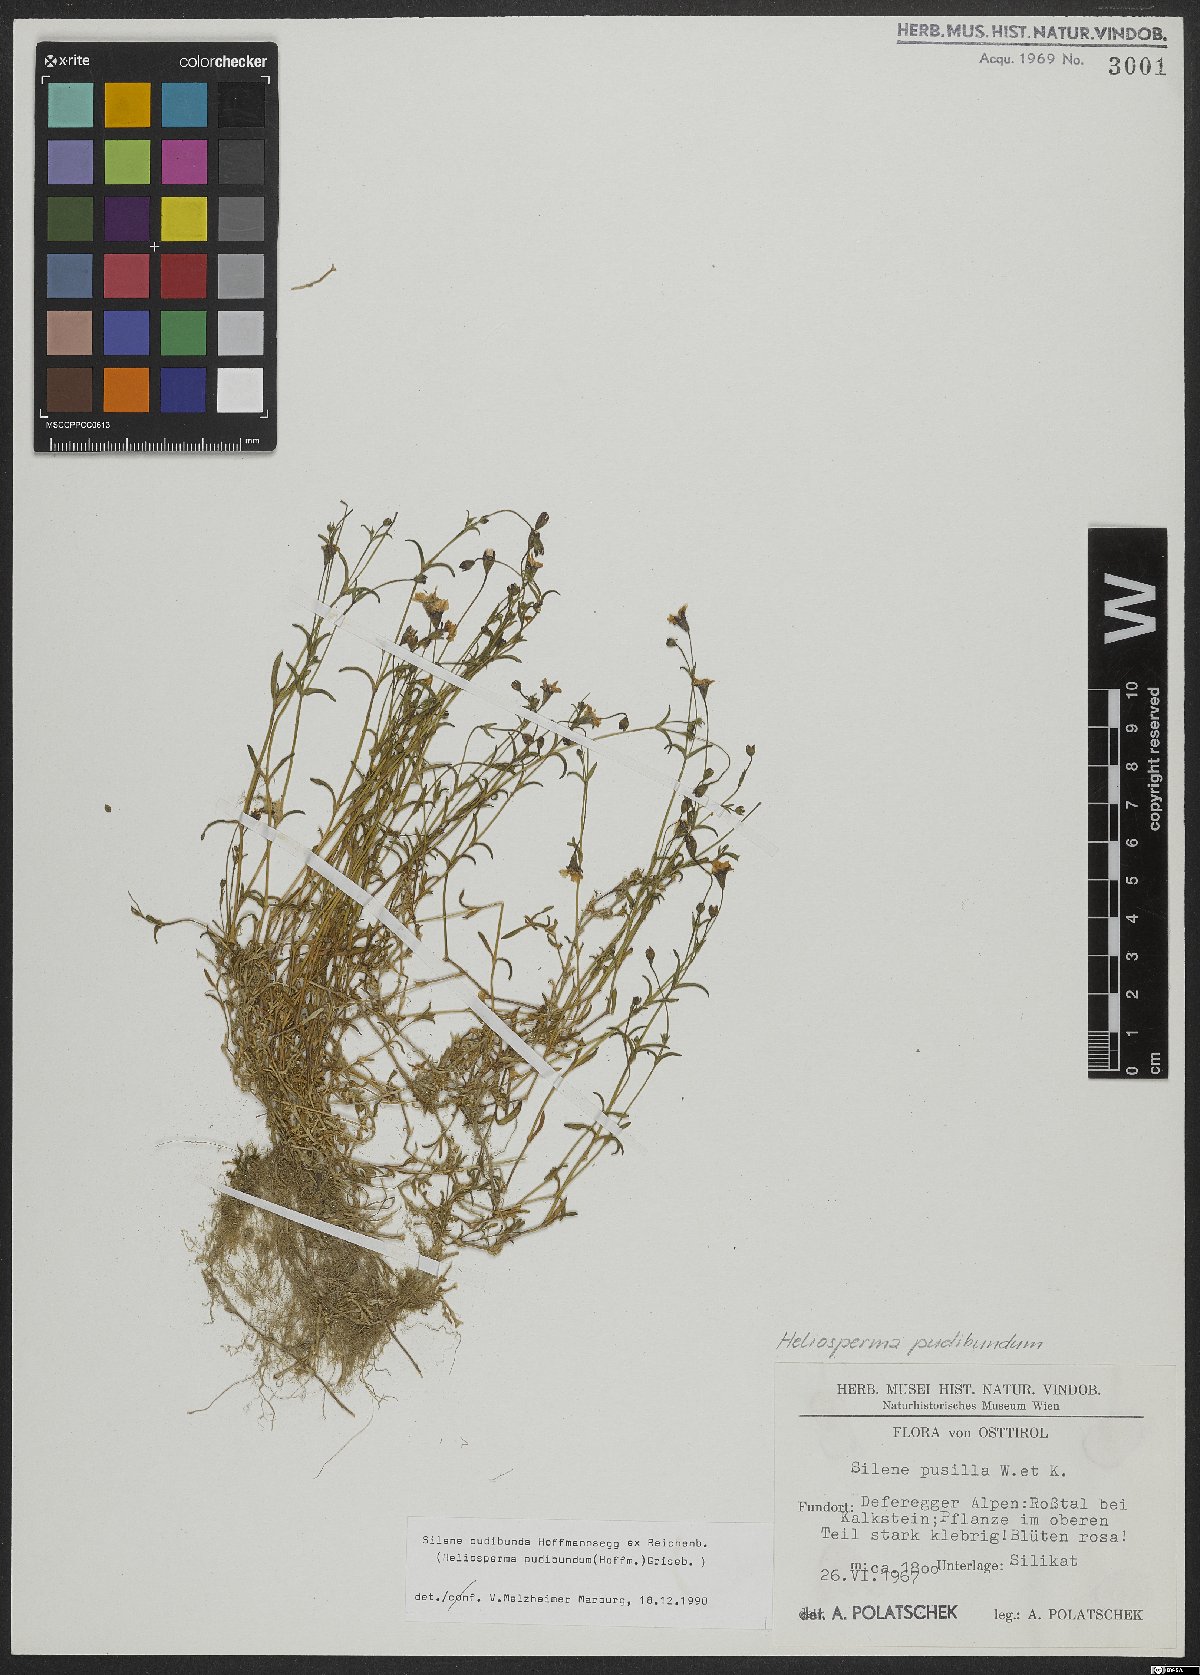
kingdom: Plantae
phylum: Tracheophyta
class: Magnoliopsida
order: Caryophyllales
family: Caryophyllaceae
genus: Heliosperma
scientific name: Heliosperma pudibundum
